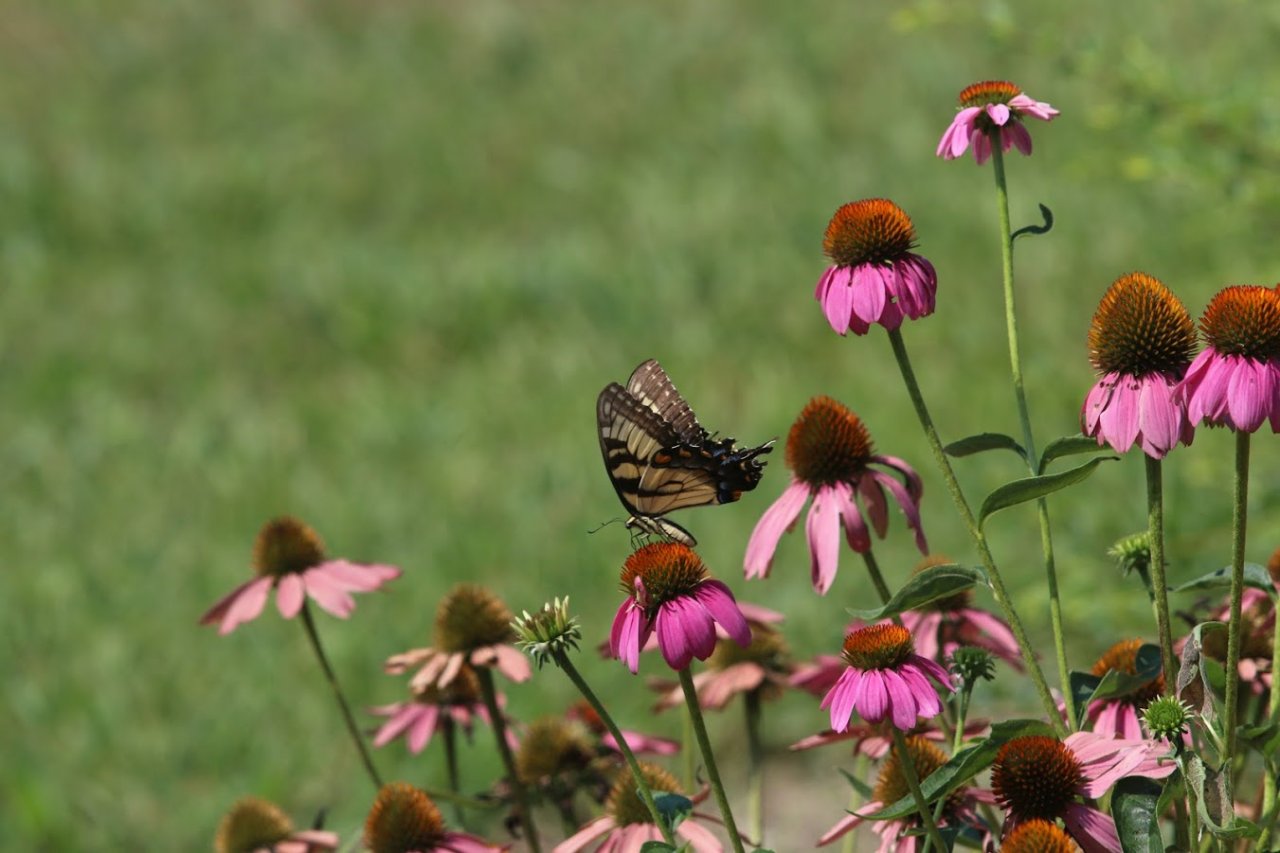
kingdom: Animalia
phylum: Arthropoda
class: Insecta
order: Lepidoptera
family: Papilionidae
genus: Pterourus
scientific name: Pterourus glaucus
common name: Eastern Tiger Swallowtail
